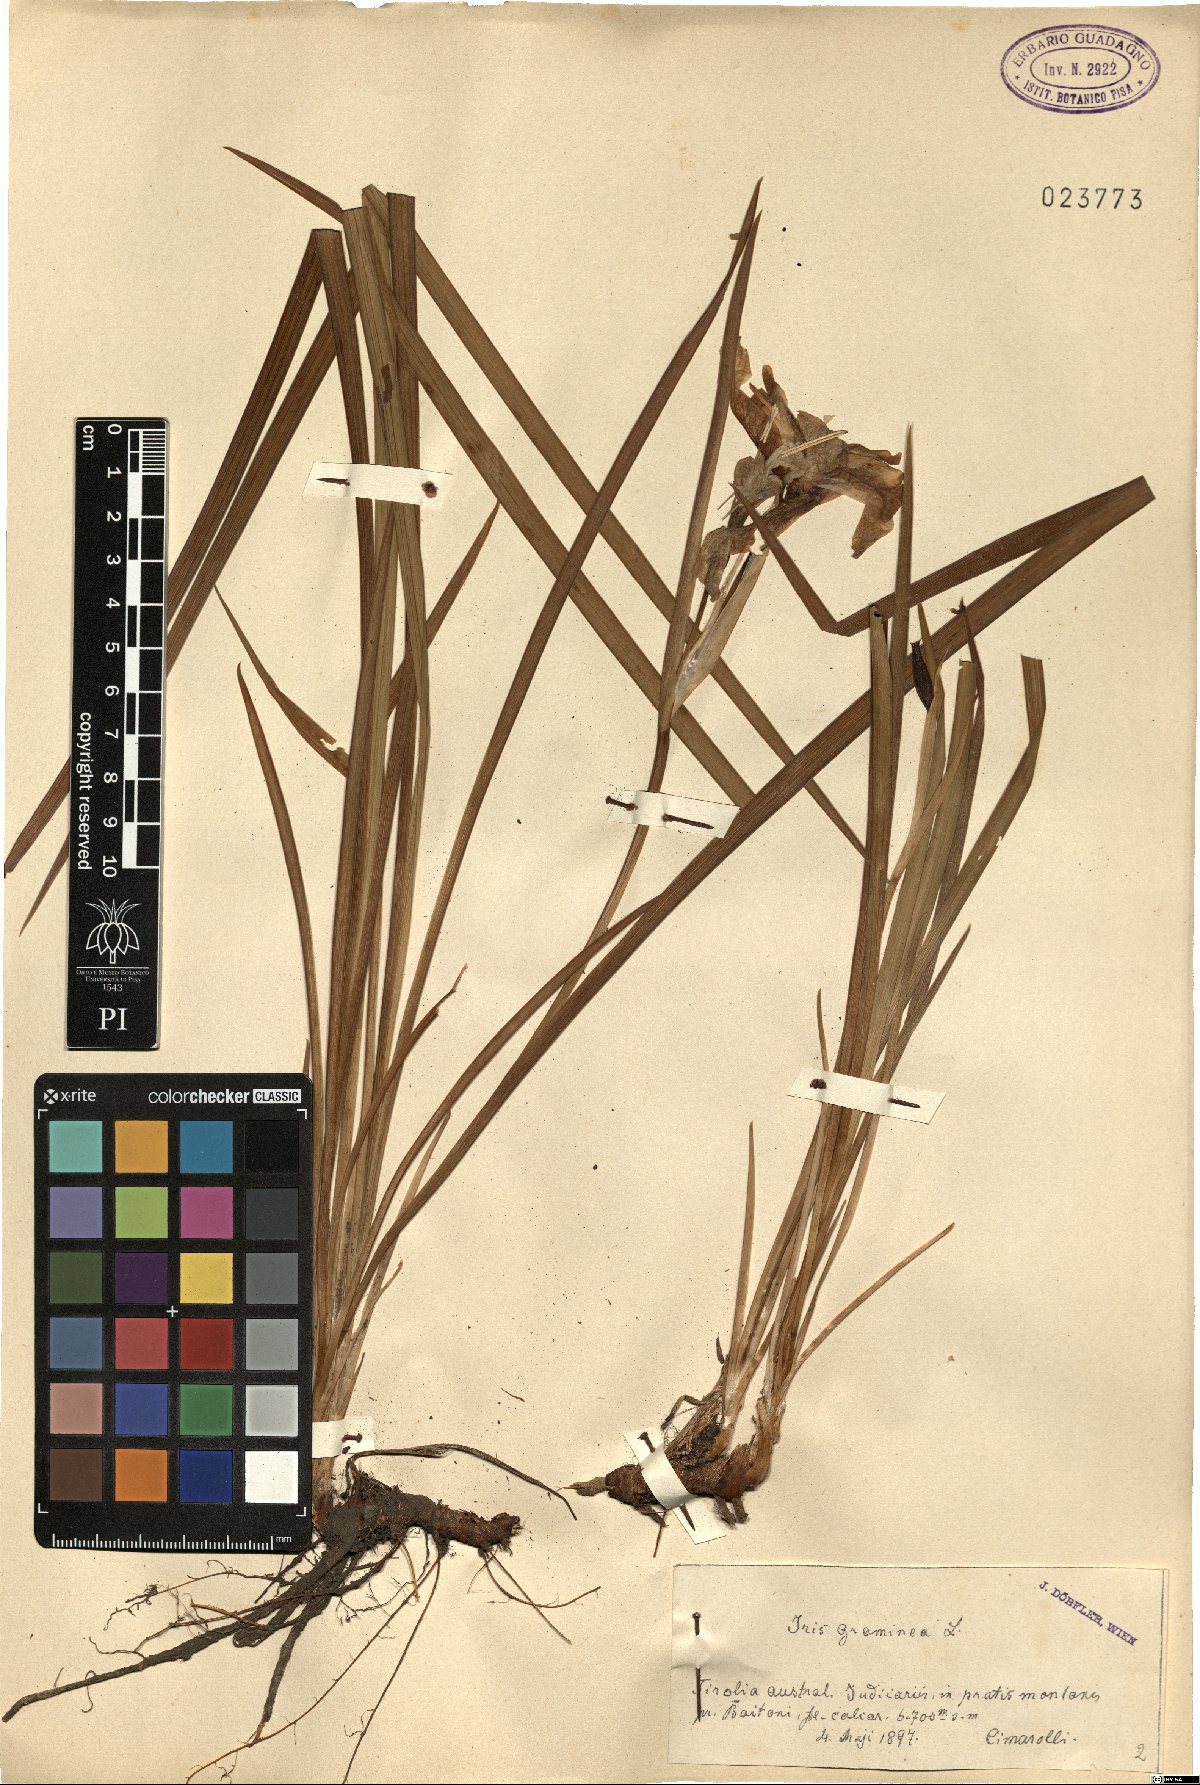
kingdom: Plantae
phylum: Tracheophyta
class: Liliopsida
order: Asparagales
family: Iridaceae
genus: Iris
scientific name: Iris graminea
